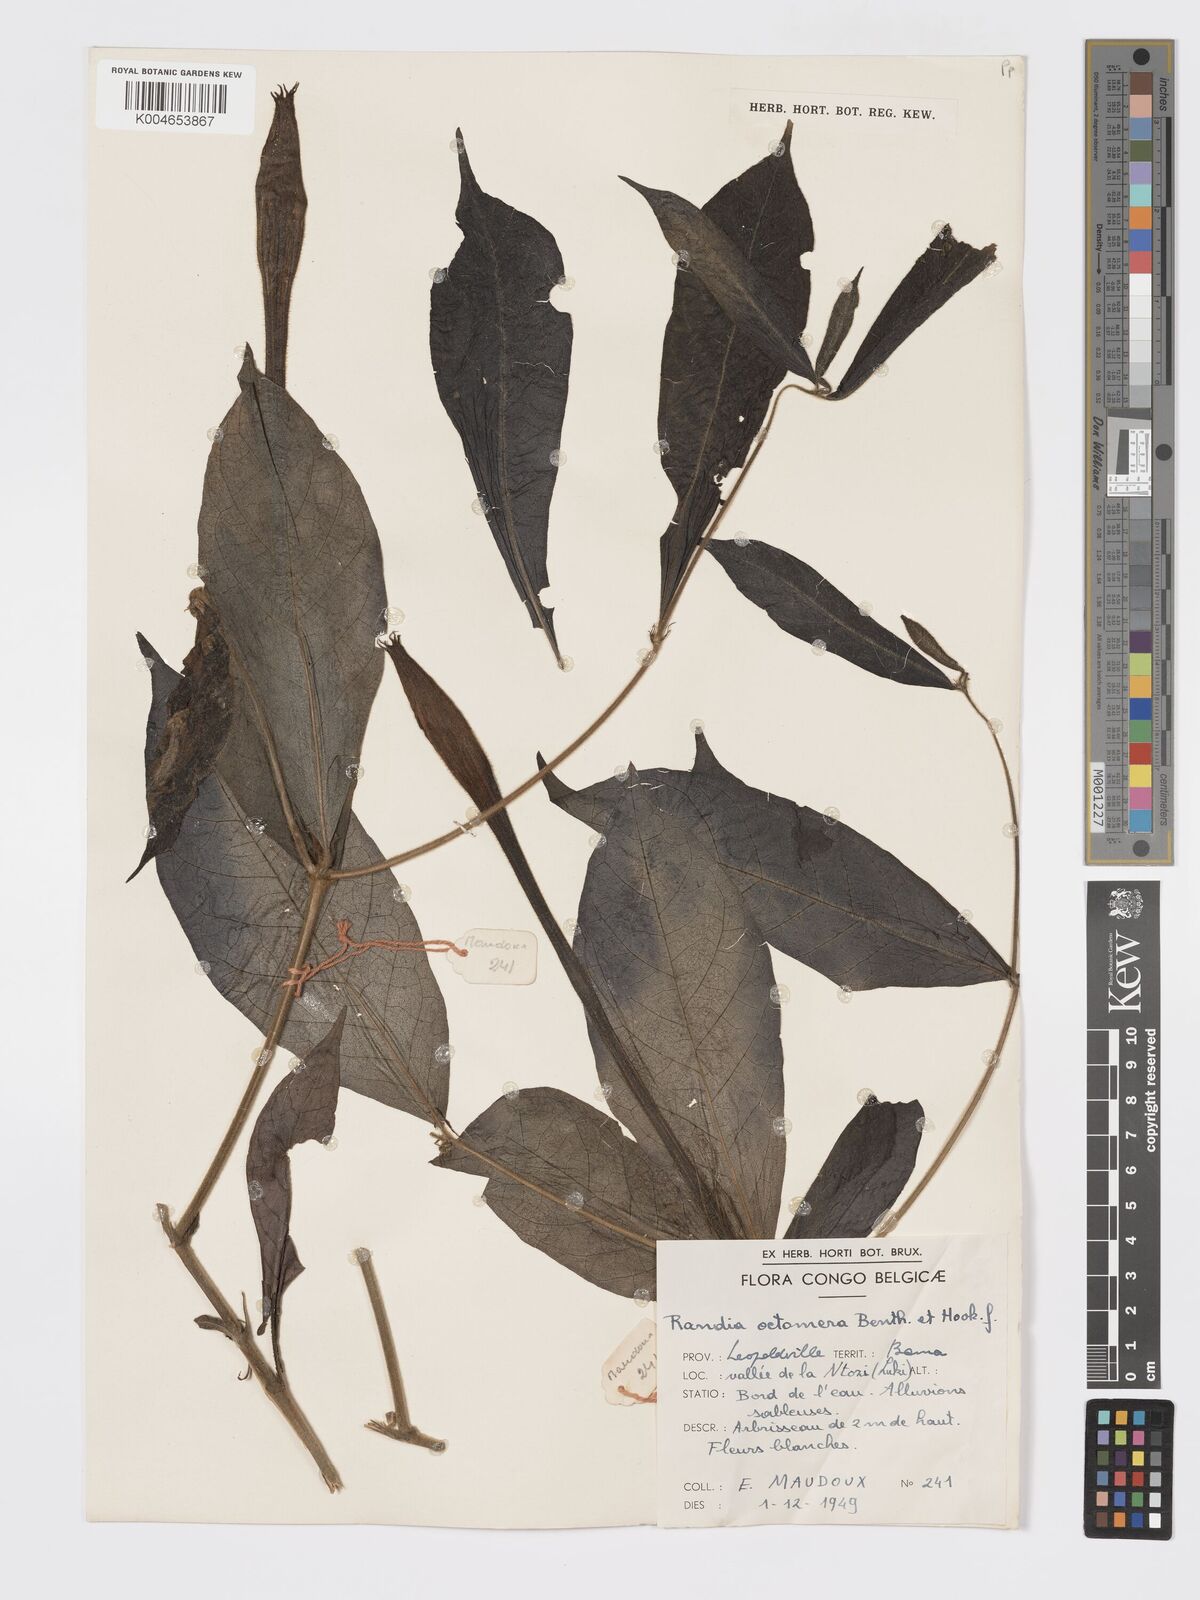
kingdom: Plantae
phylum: Tracheophyta
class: Magnoliopsida
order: Gentianales
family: Rubiaceae
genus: Rothmannia
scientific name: Rothmannia octomera
